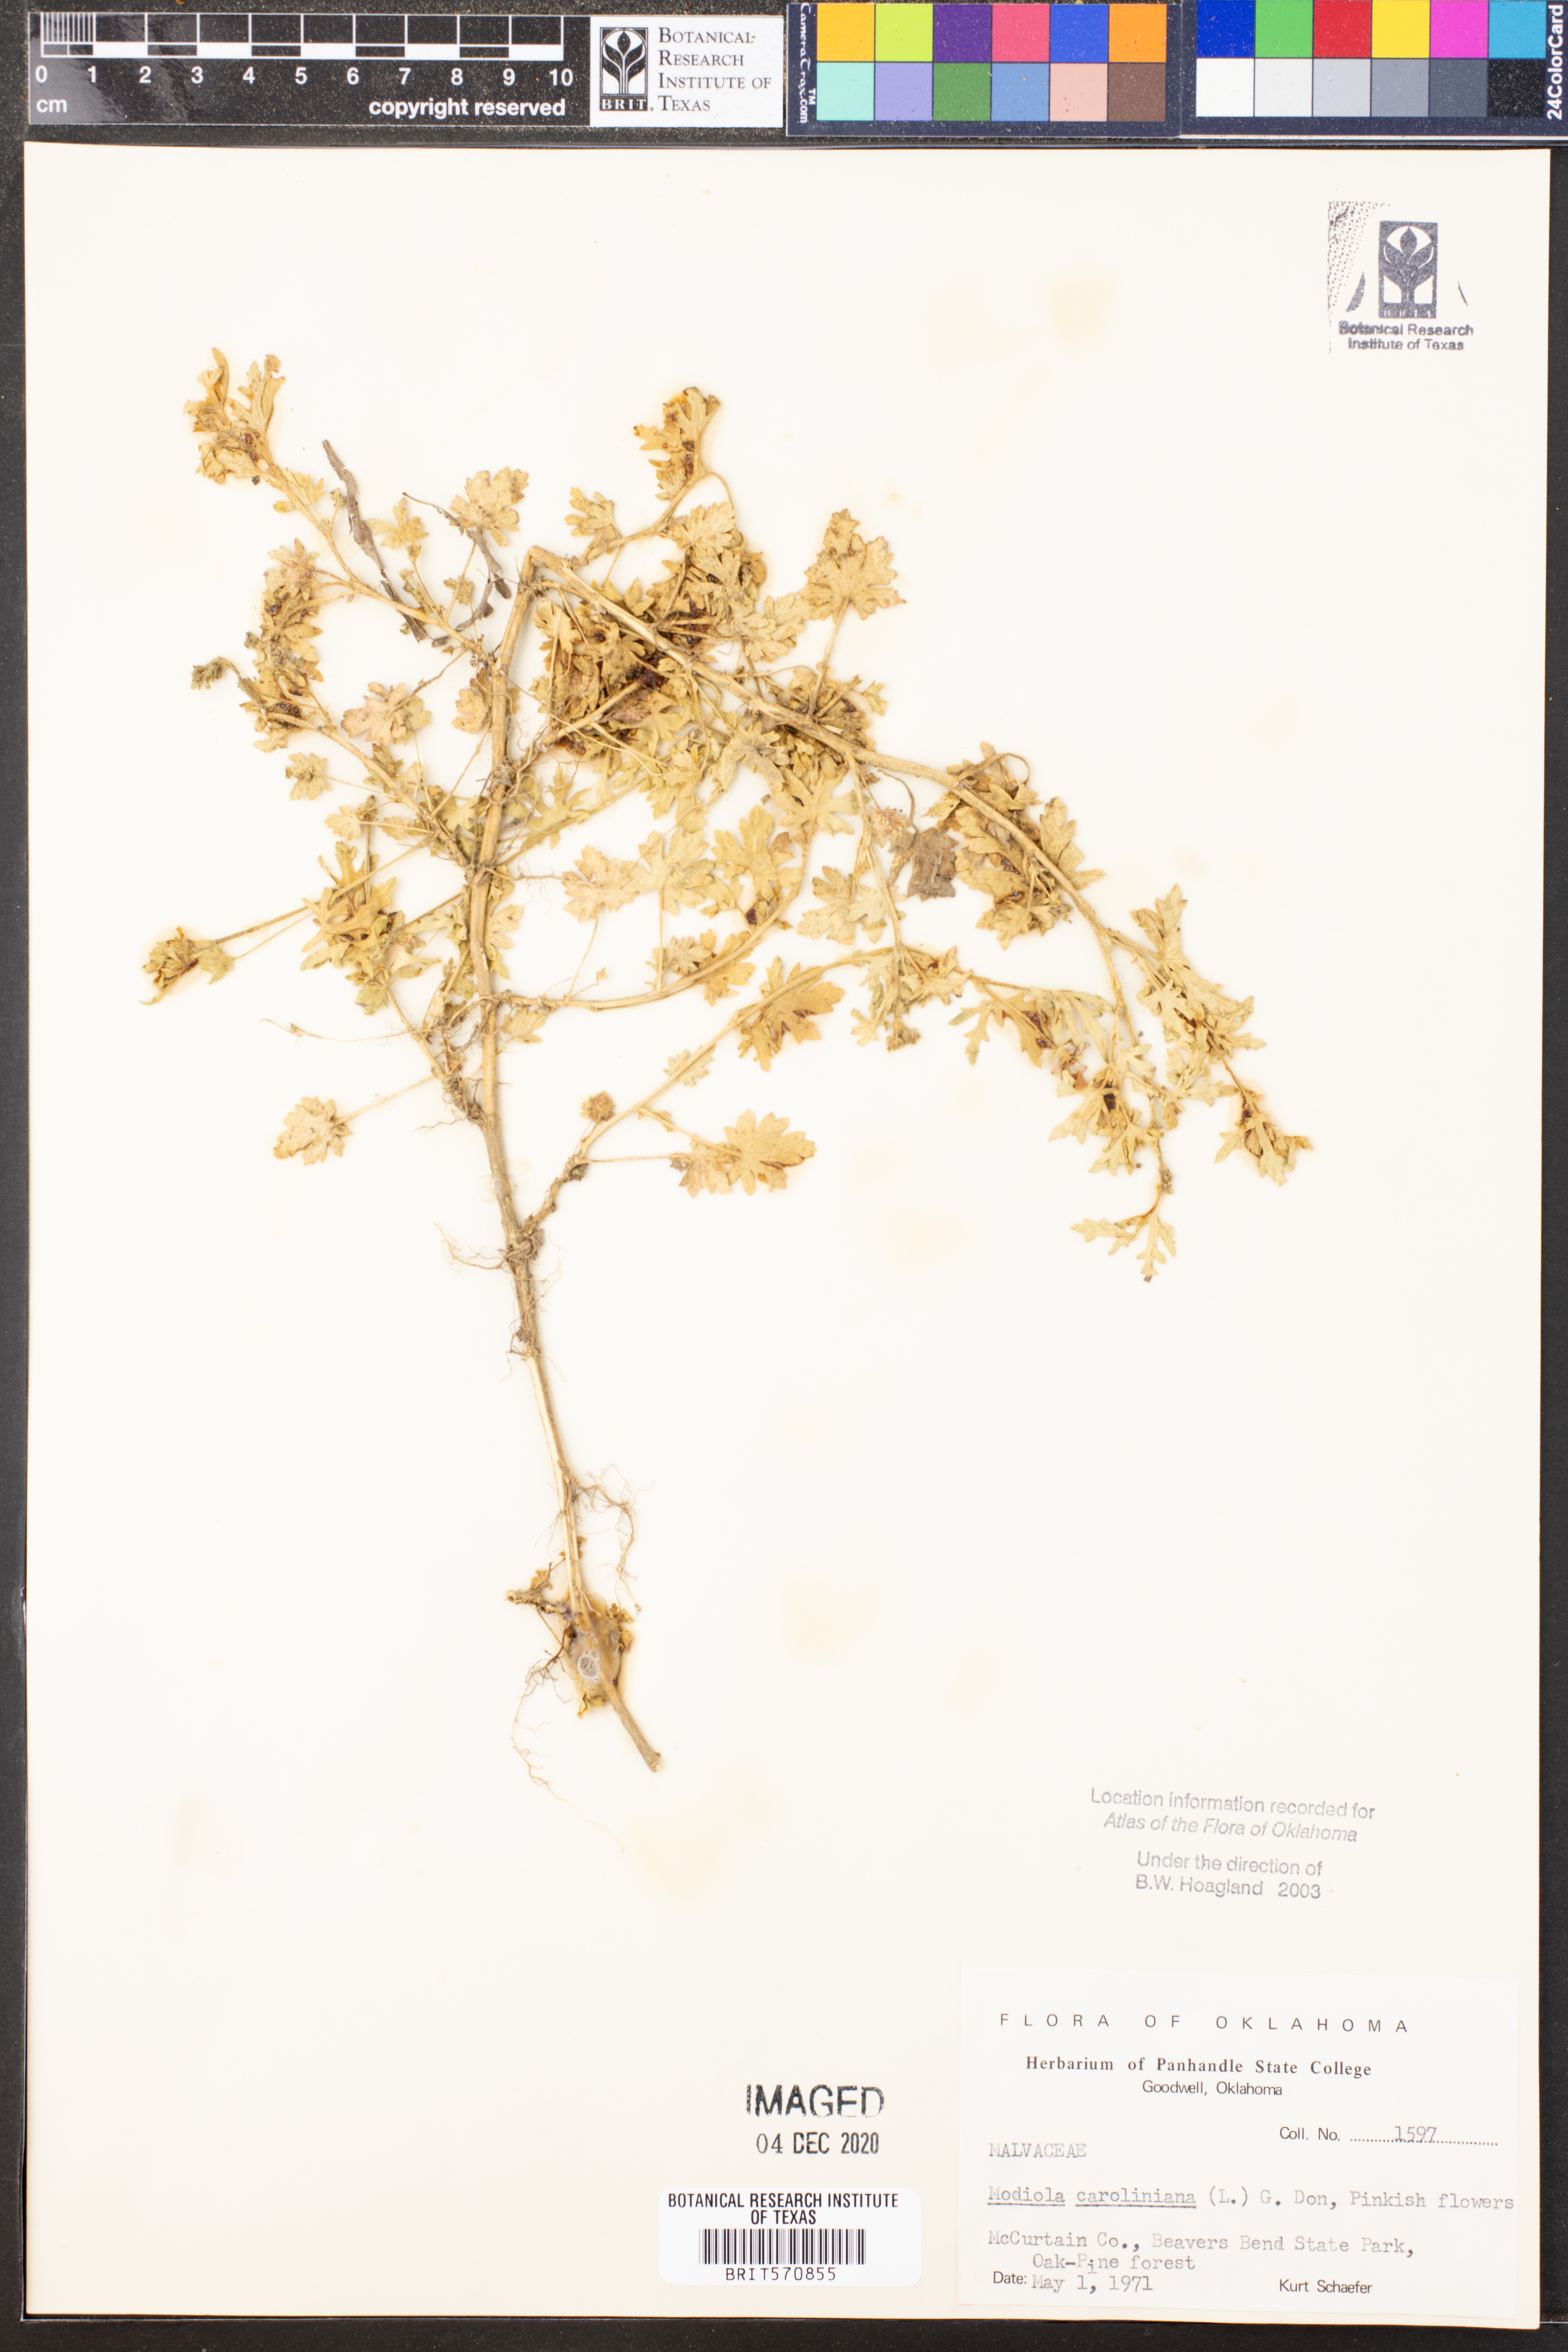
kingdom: Plantae
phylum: Tracheophyta
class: Magnoliopsida
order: Malvales
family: Malvaceae
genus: Modiola
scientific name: Modiola caroliniana
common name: Carolina bristlemallow
